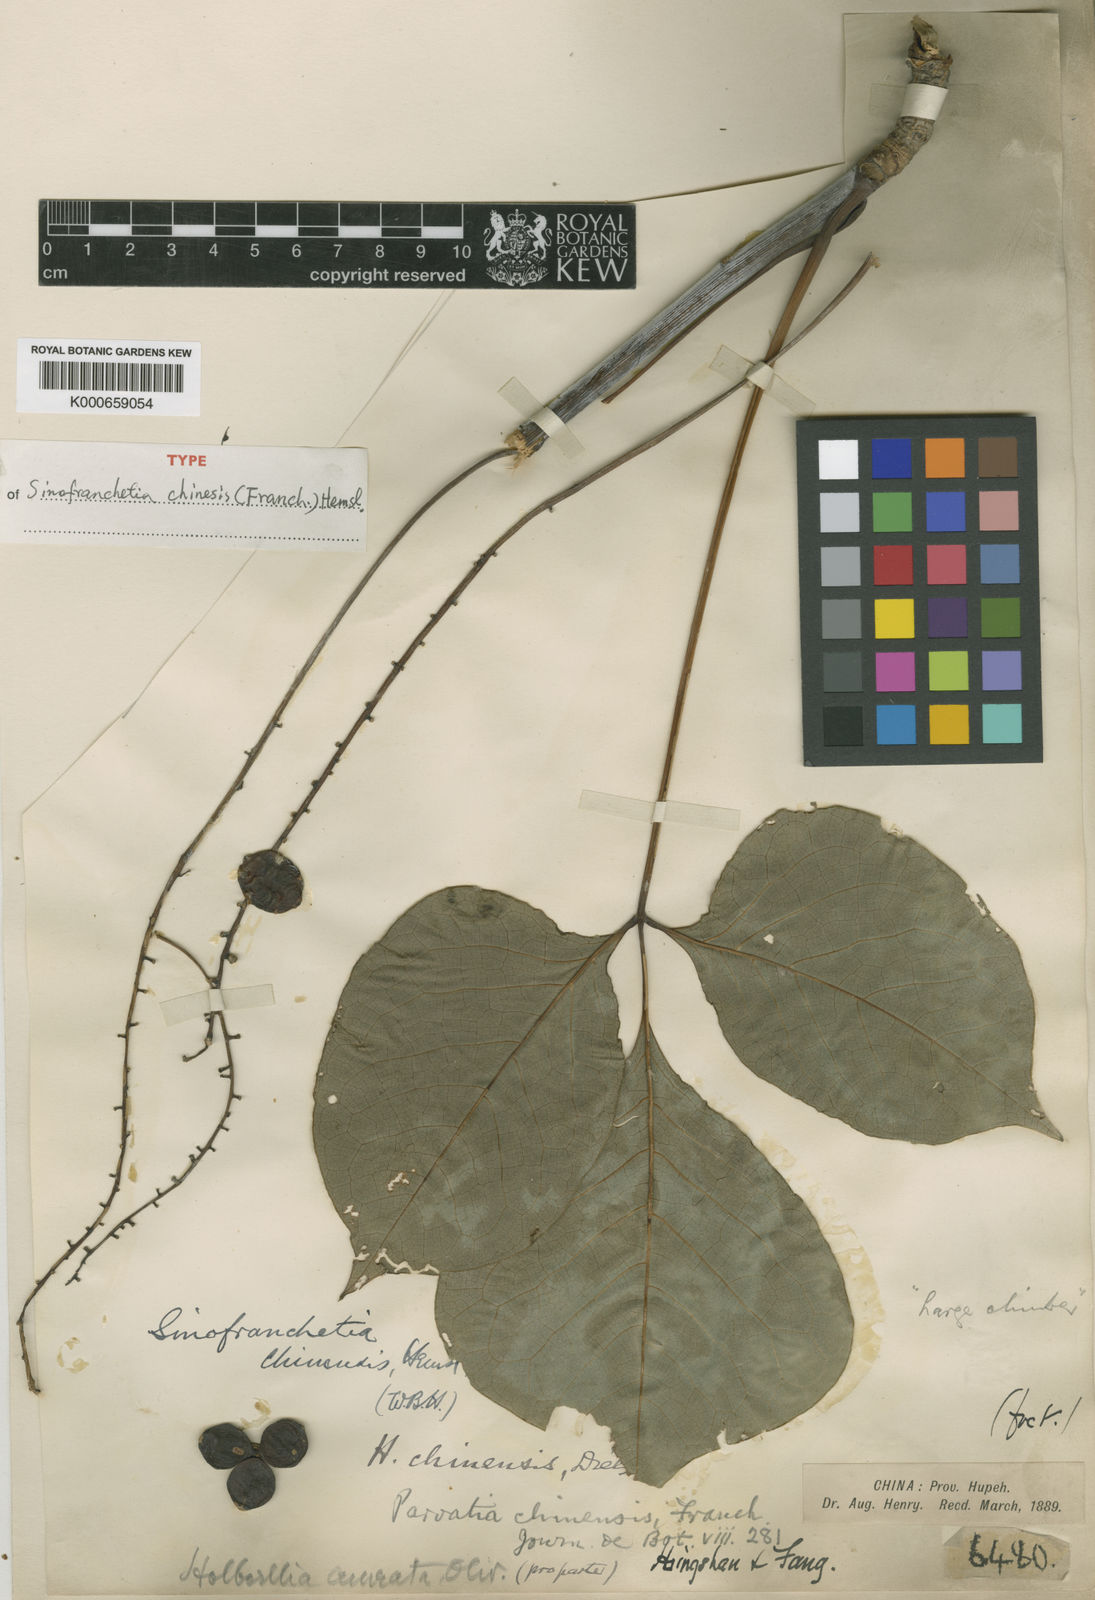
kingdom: Plantae
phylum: Tracheophyta
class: Magnoliopsida
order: Ranunculales
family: Lardizabalaceae
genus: Sinofranchetia
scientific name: Sinofranchetia chinensis
